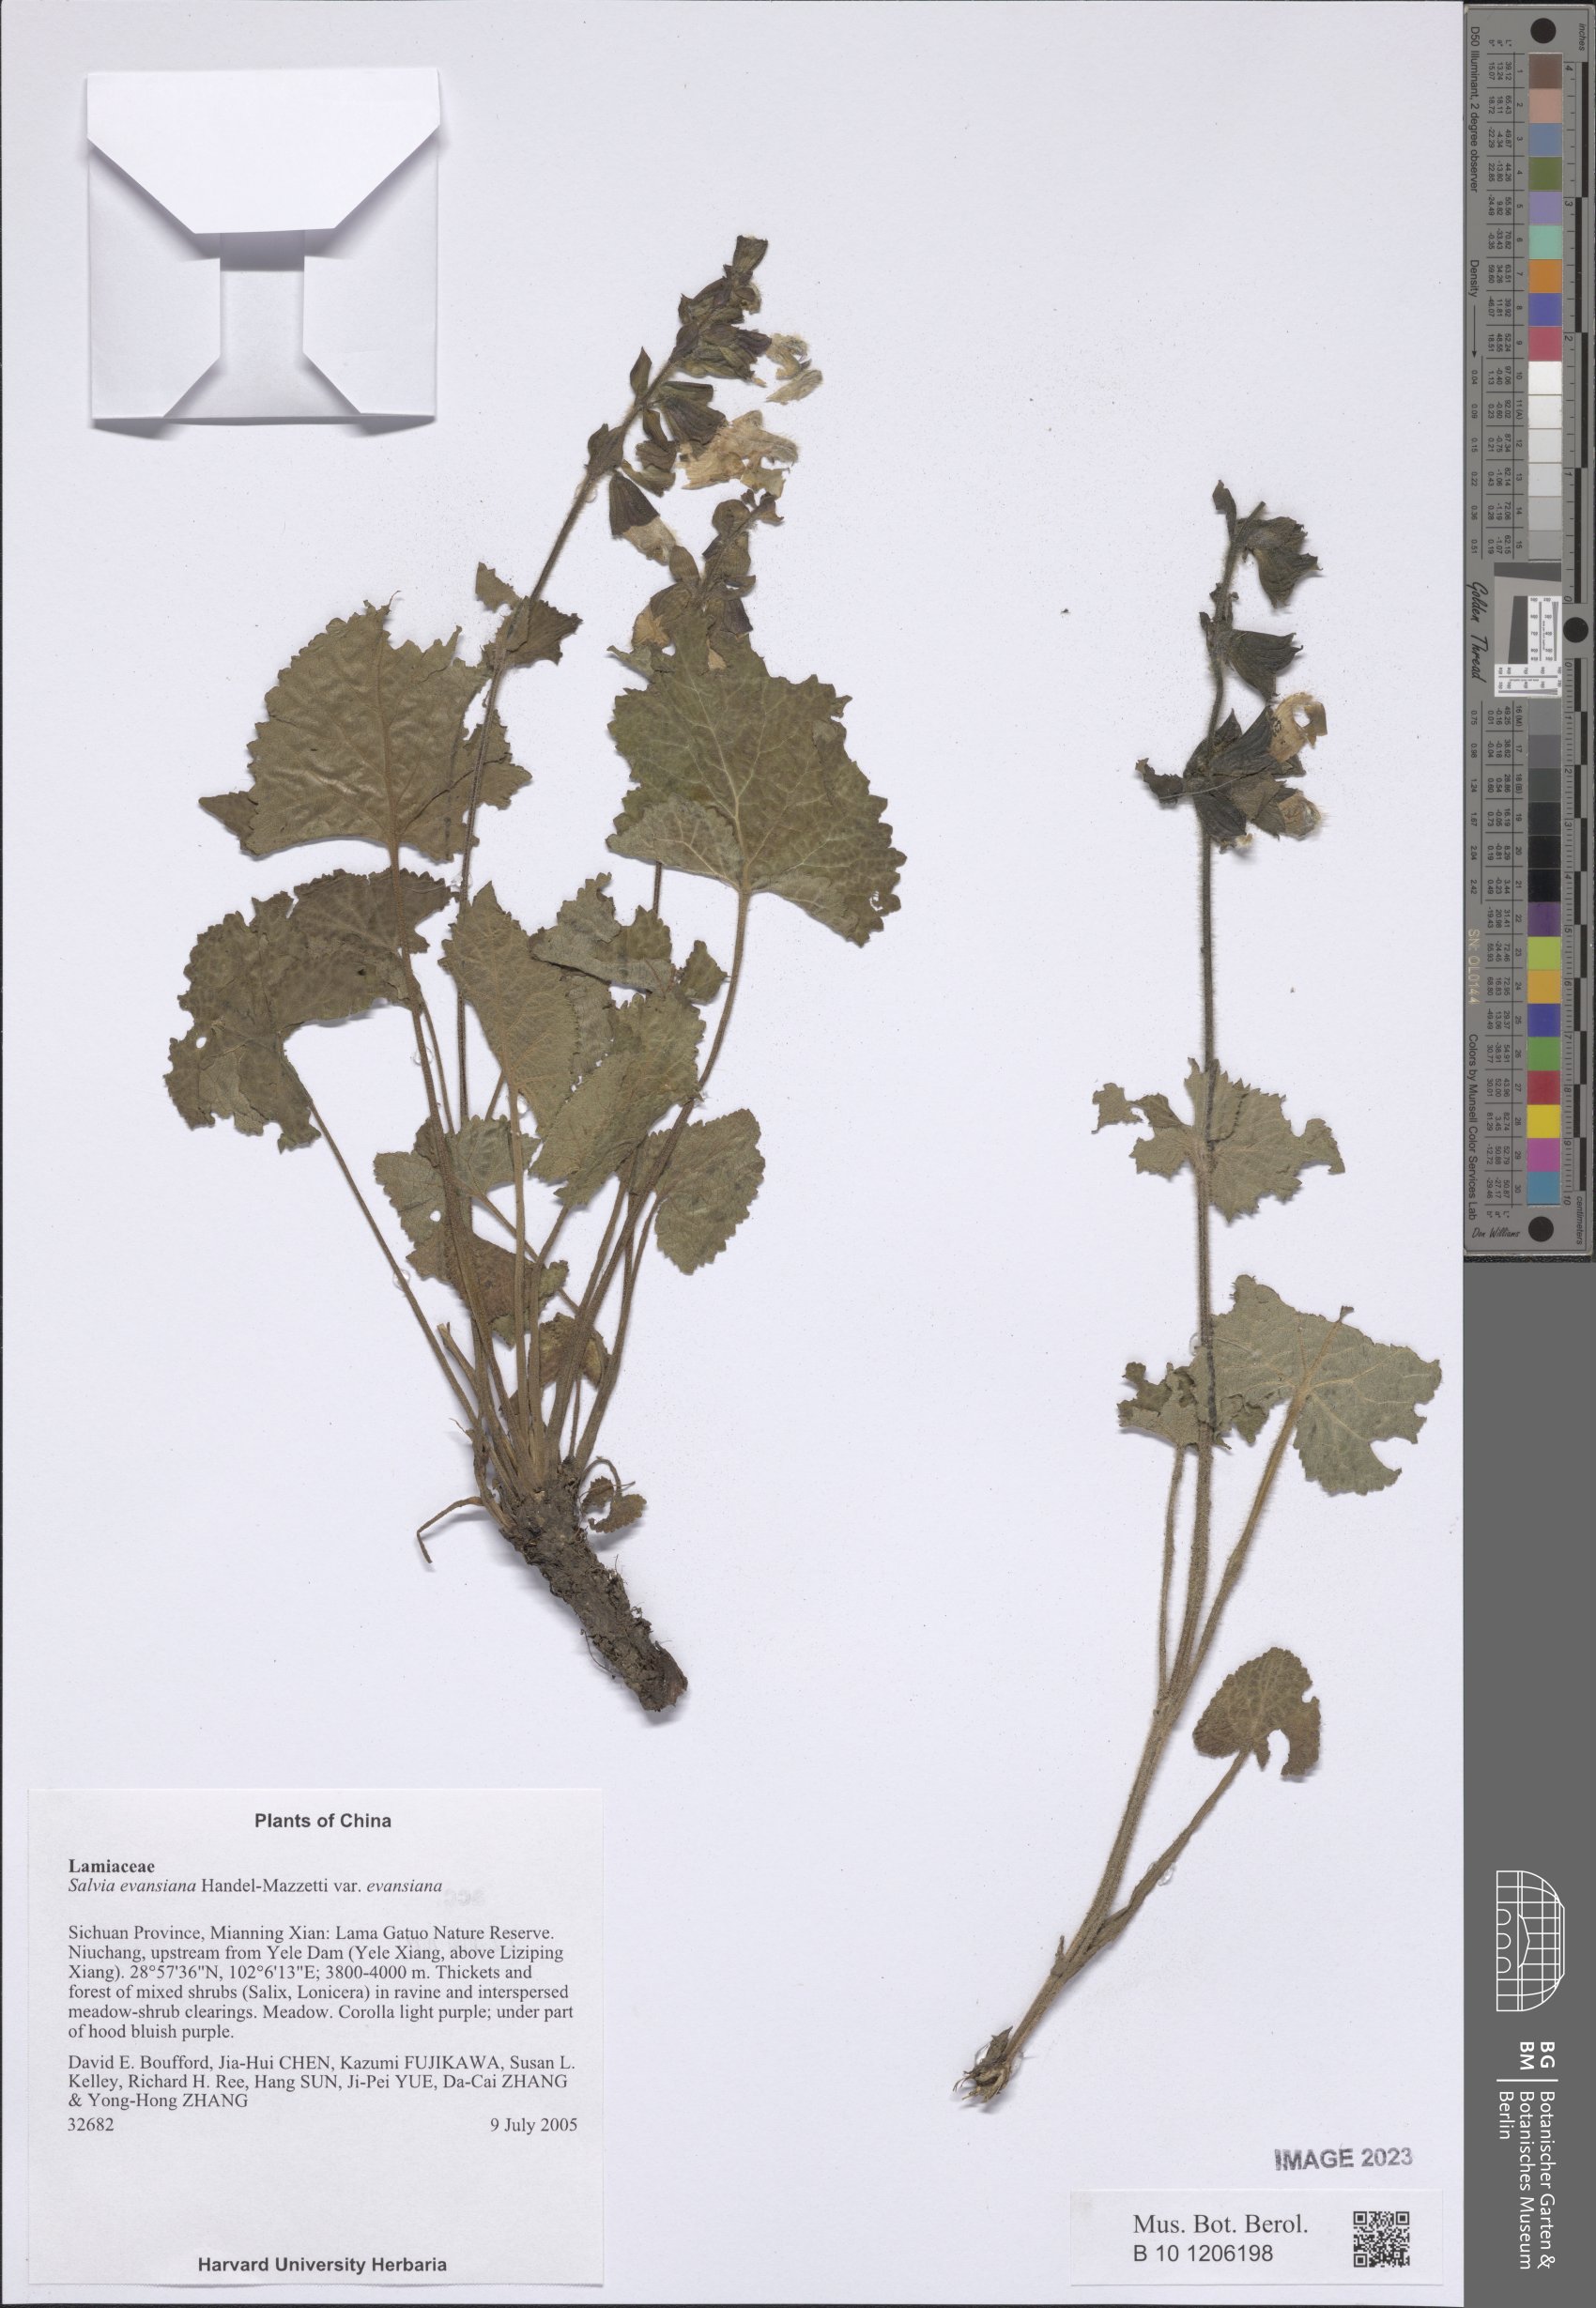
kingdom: Plantae
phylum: Tracheophyta
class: Magnoliopsida
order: Lamiales
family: Lamiaceae
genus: Salvia
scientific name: Salvia evansiana
